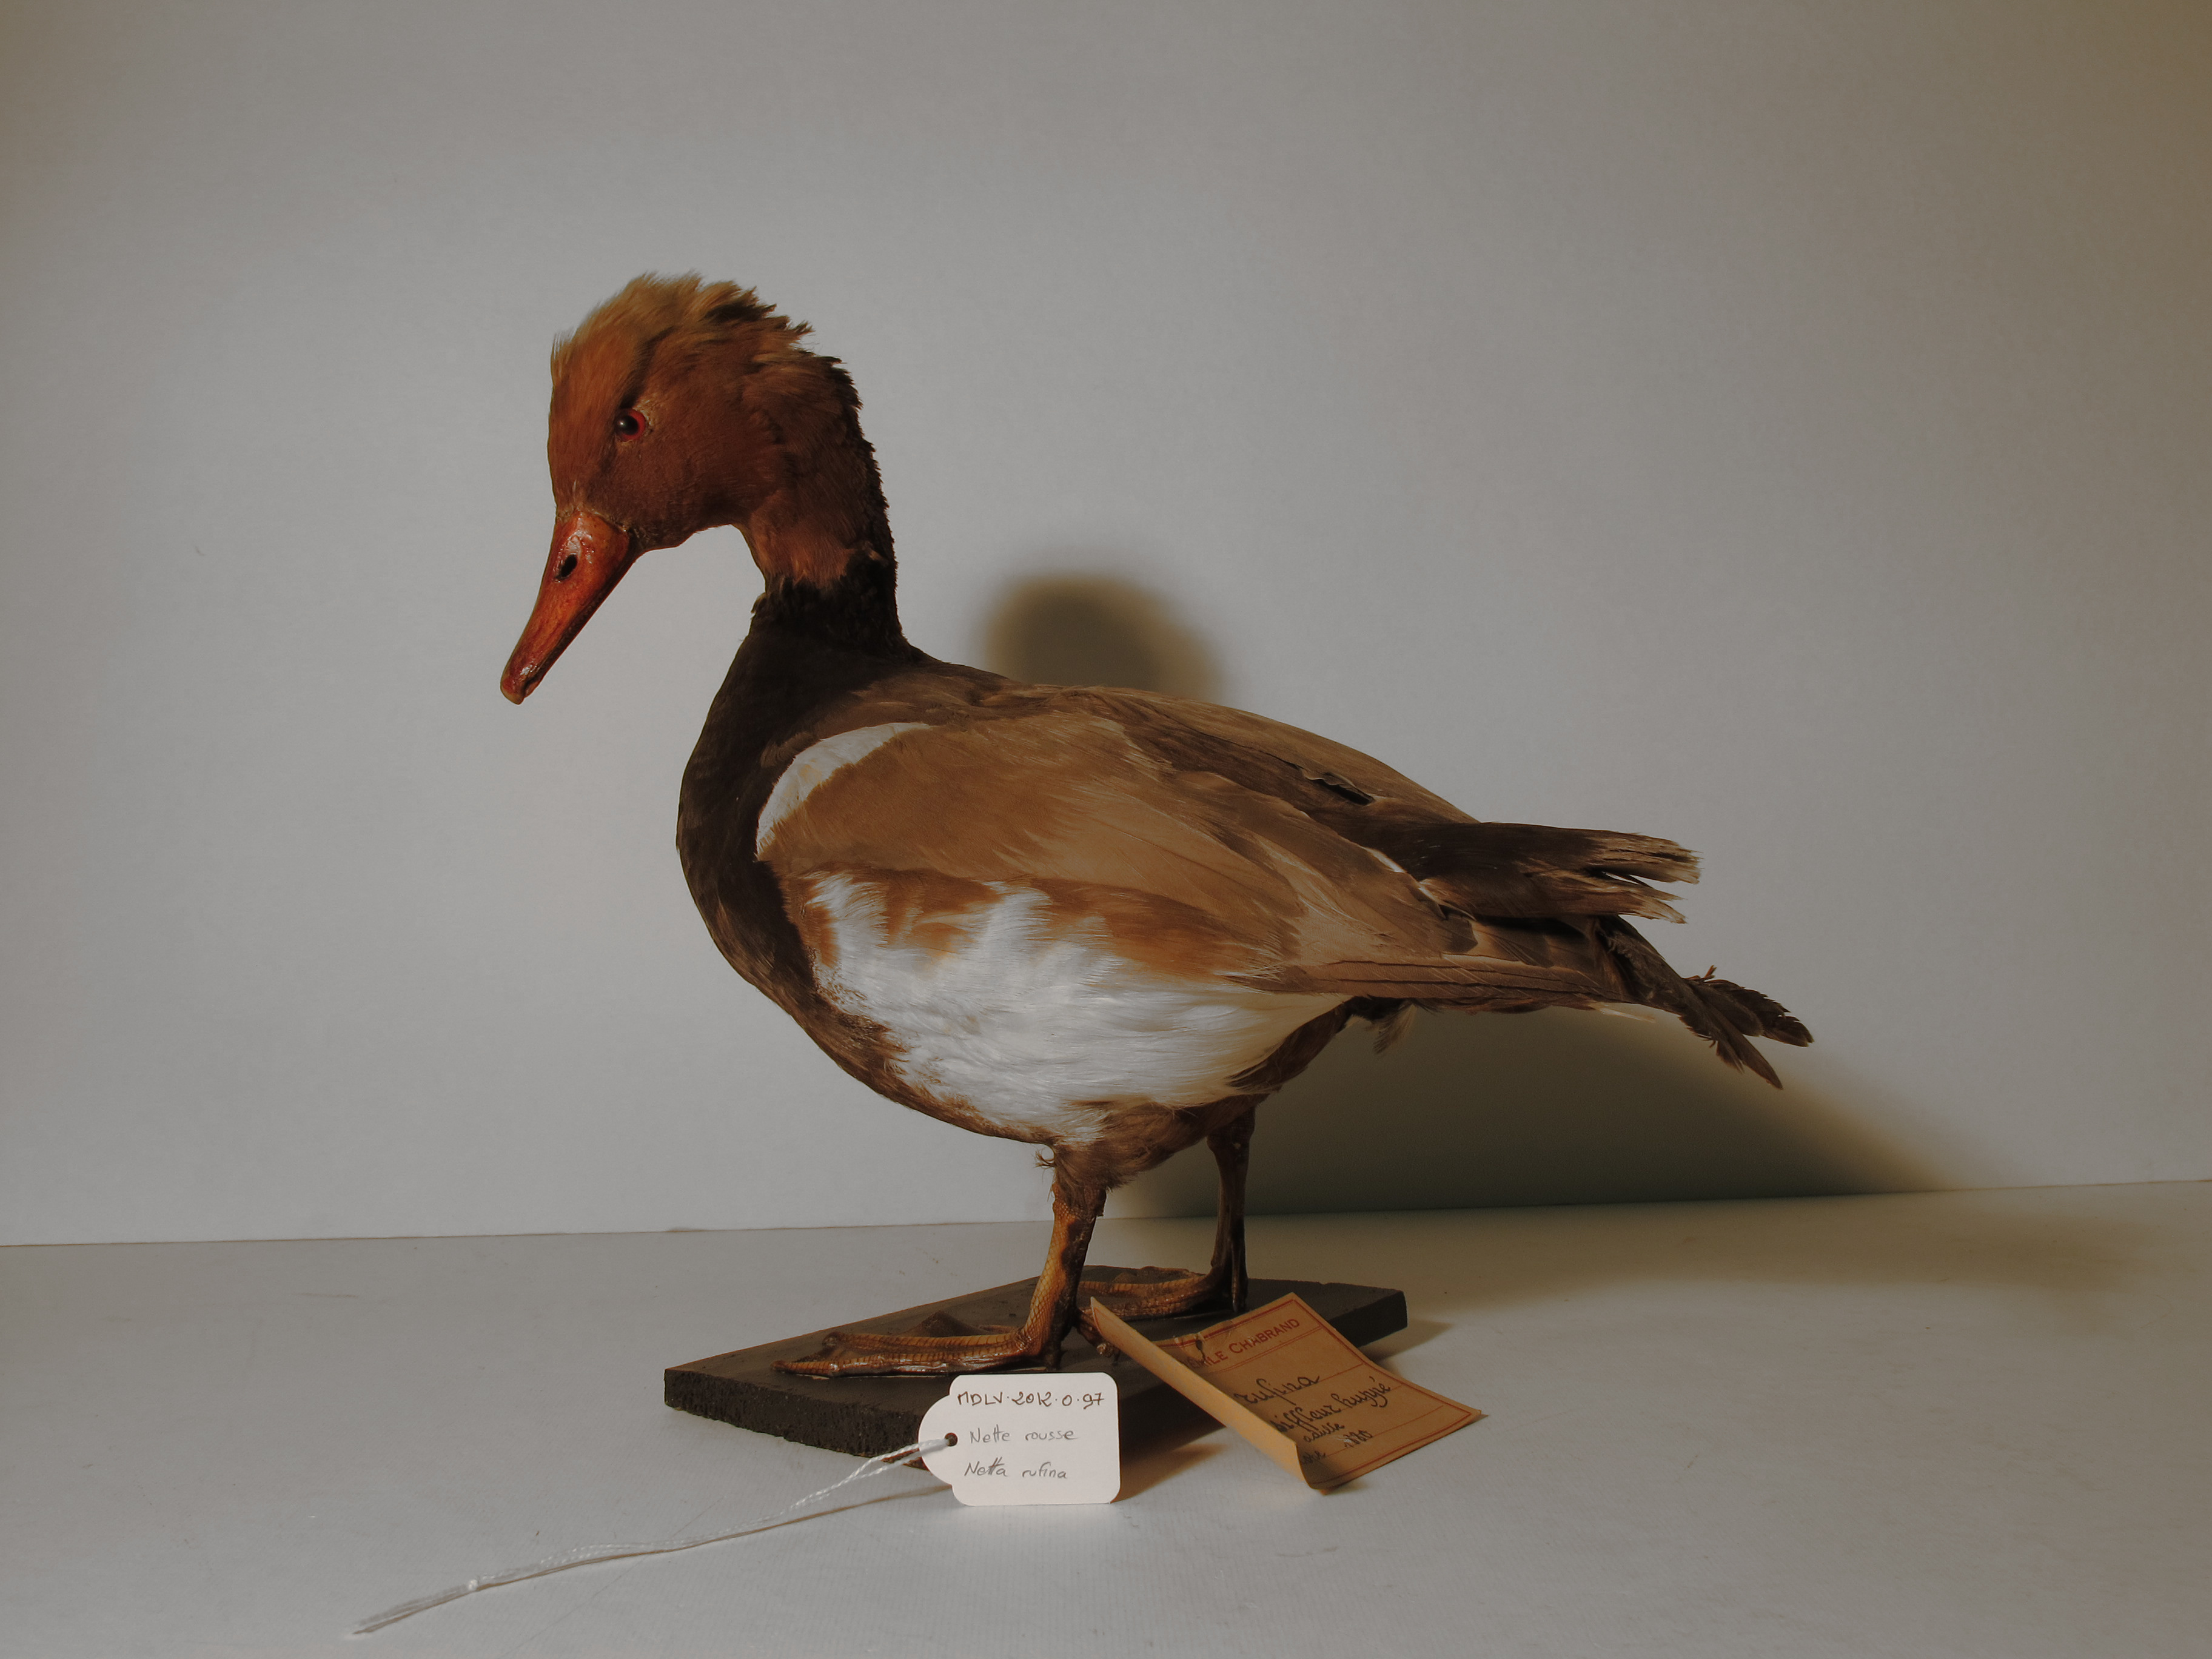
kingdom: Animalia
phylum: Chordata
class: Aves
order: Anseriformes
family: Anatidae
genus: Netta
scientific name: Netta rufina
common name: Red-crested Pochard
